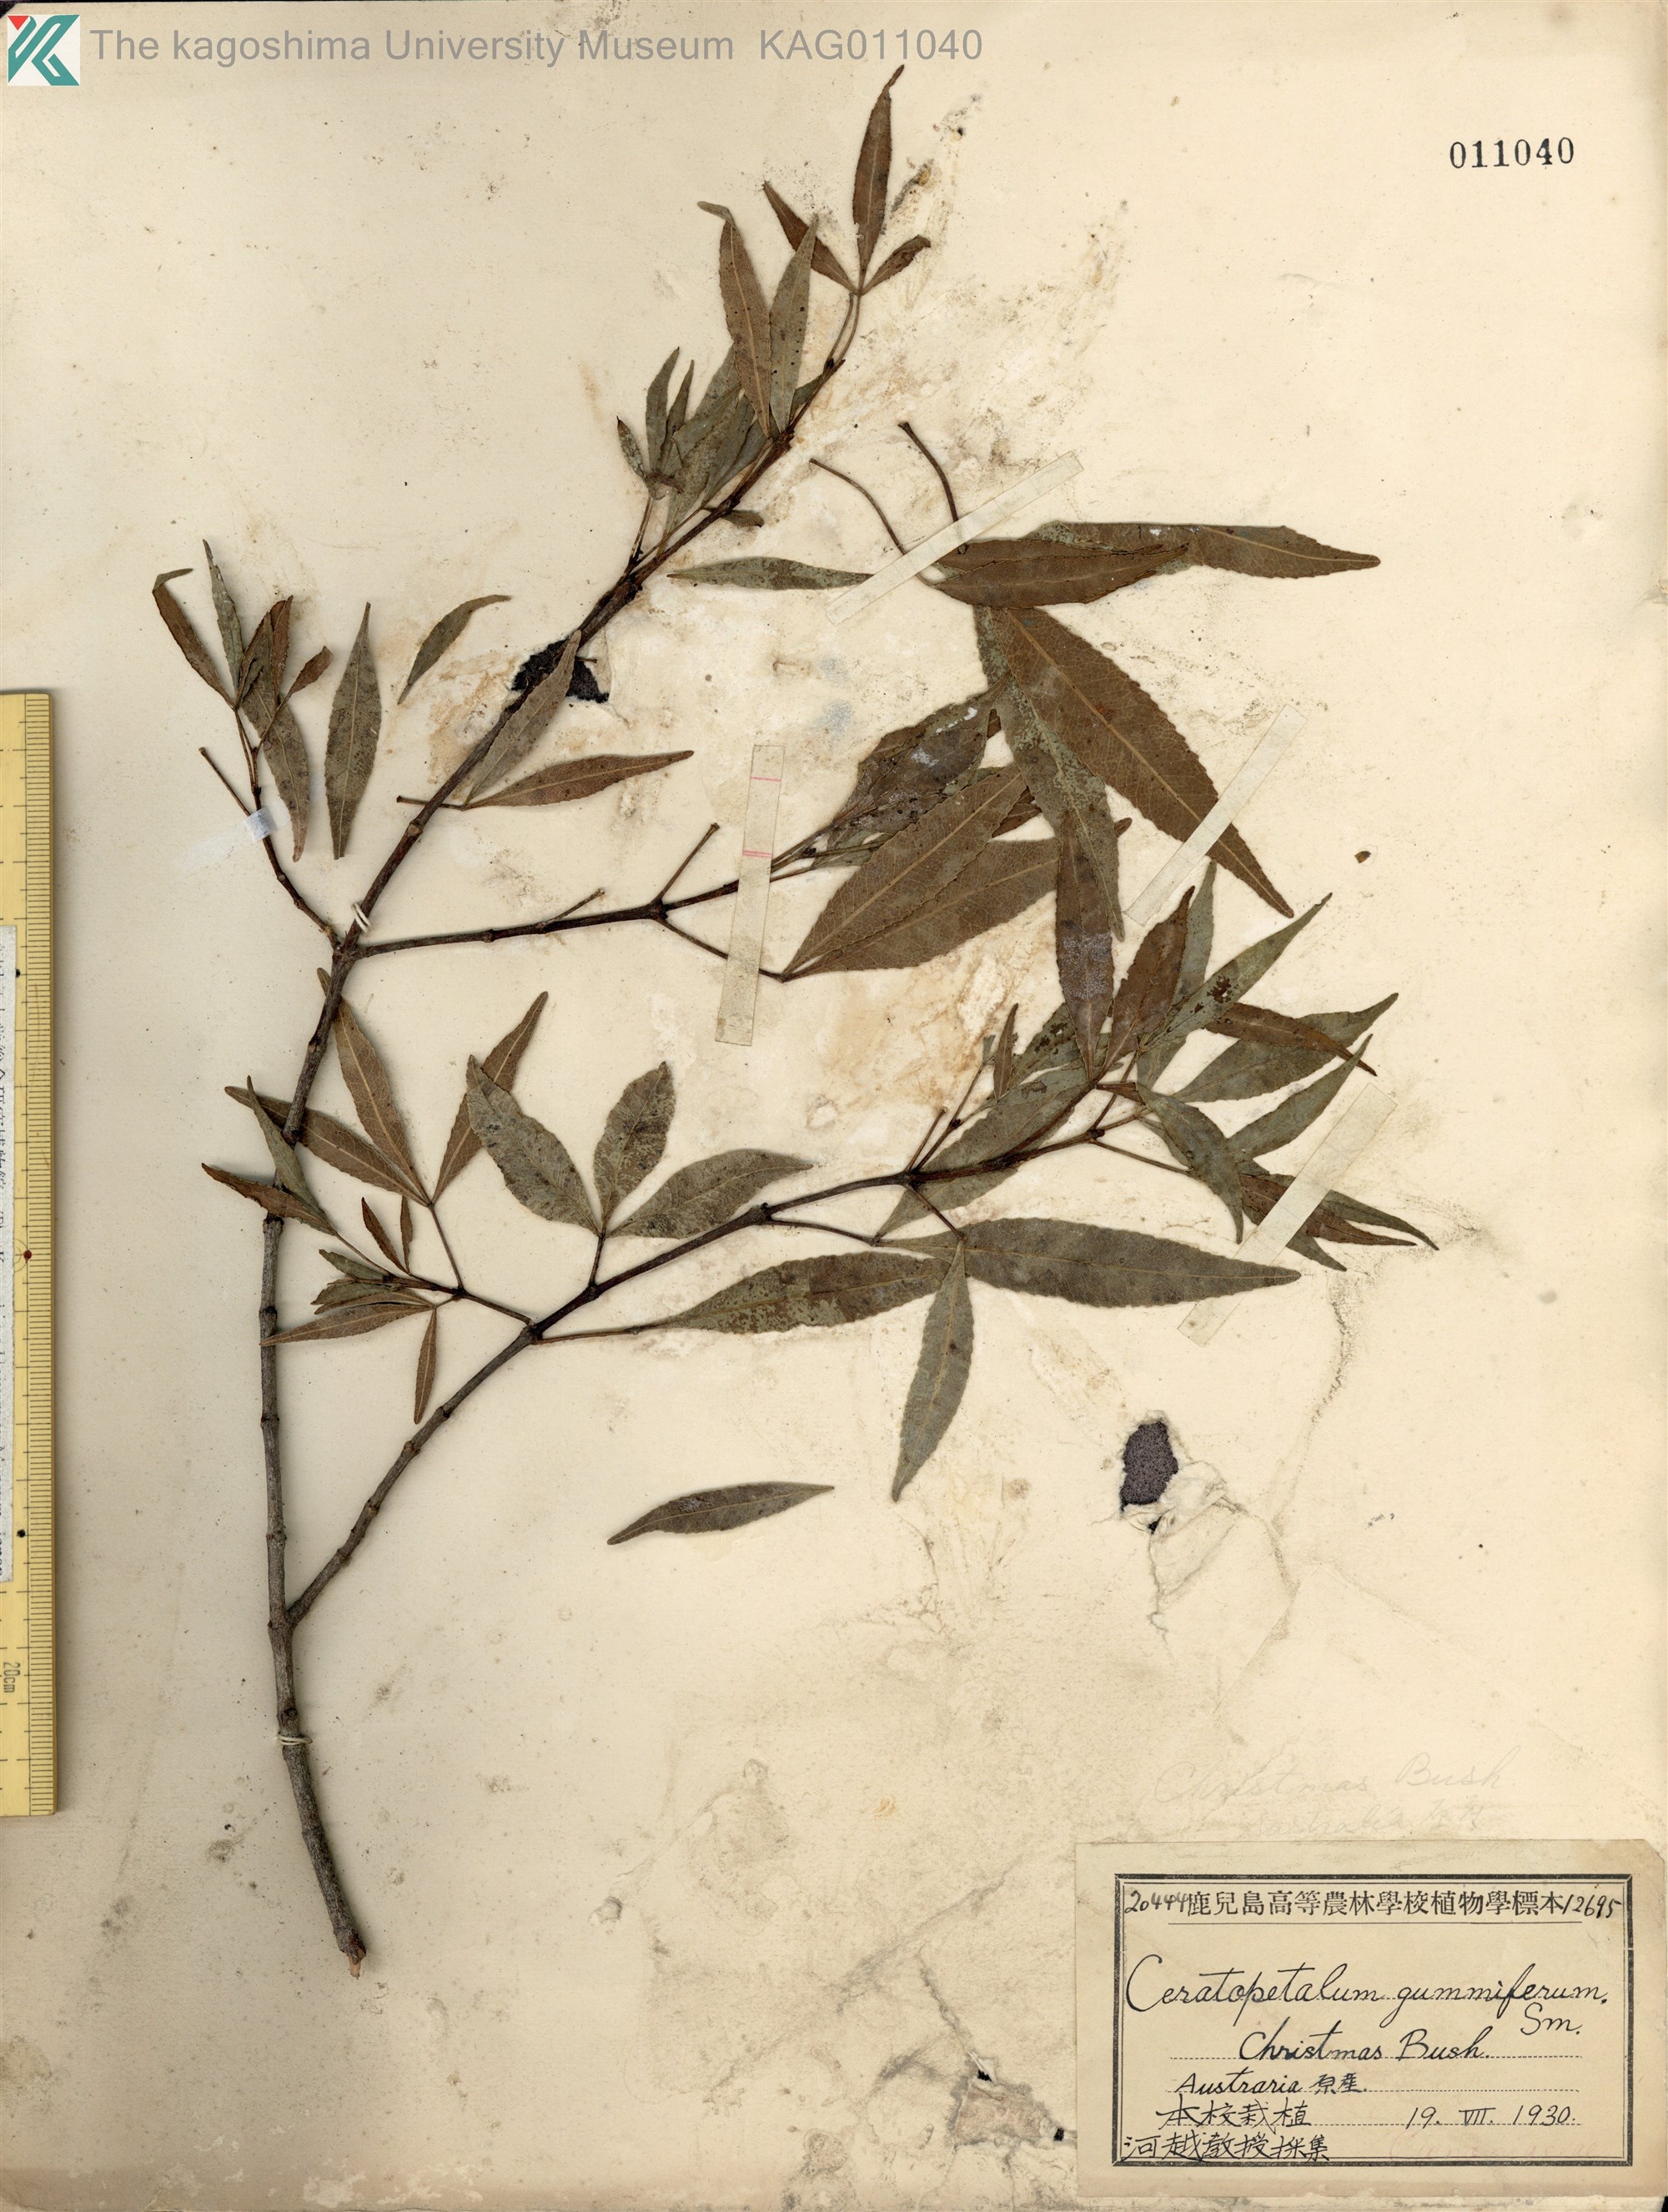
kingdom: Plantae
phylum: Tracheophyta
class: Magnoliopsida
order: Oxalidales
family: Cunoniaceae
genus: Ceratopetalum
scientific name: Ceratopetalum gummiferum
